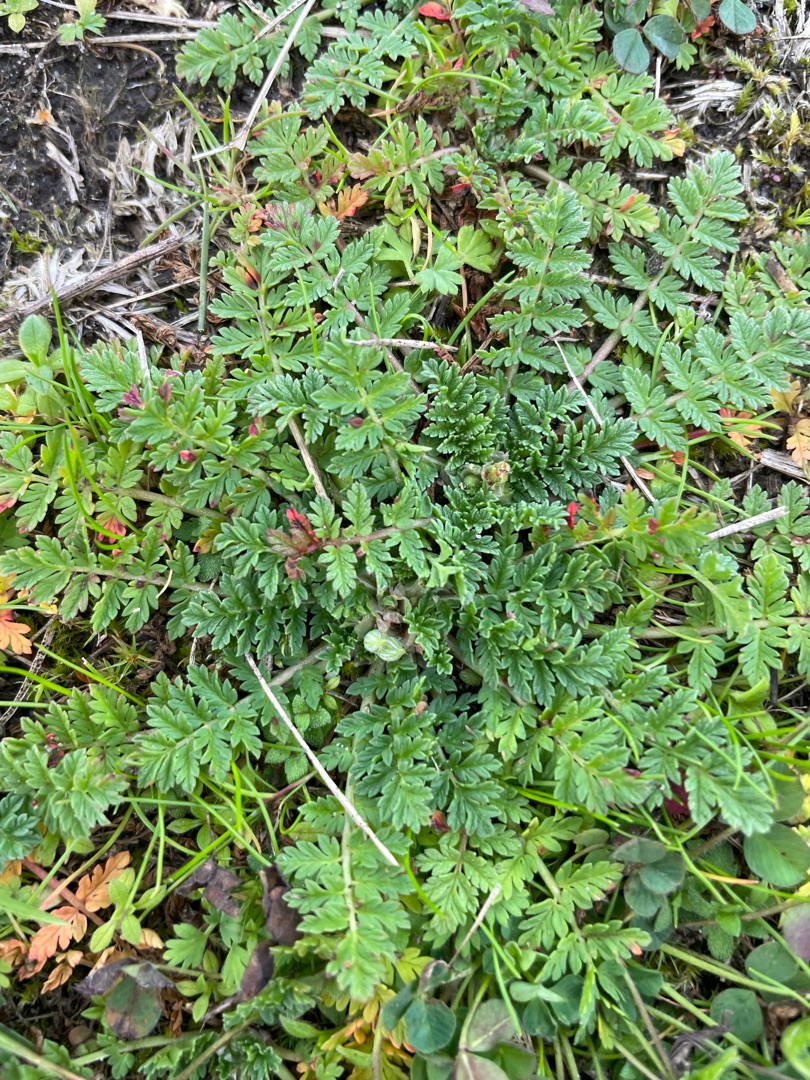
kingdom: Plantae
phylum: Tracheophyta
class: Magnoliopsida
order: Geraniales
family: Geraniaceae
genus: Erodium
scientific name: Erodium cicutarium
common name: Hejrenæb
